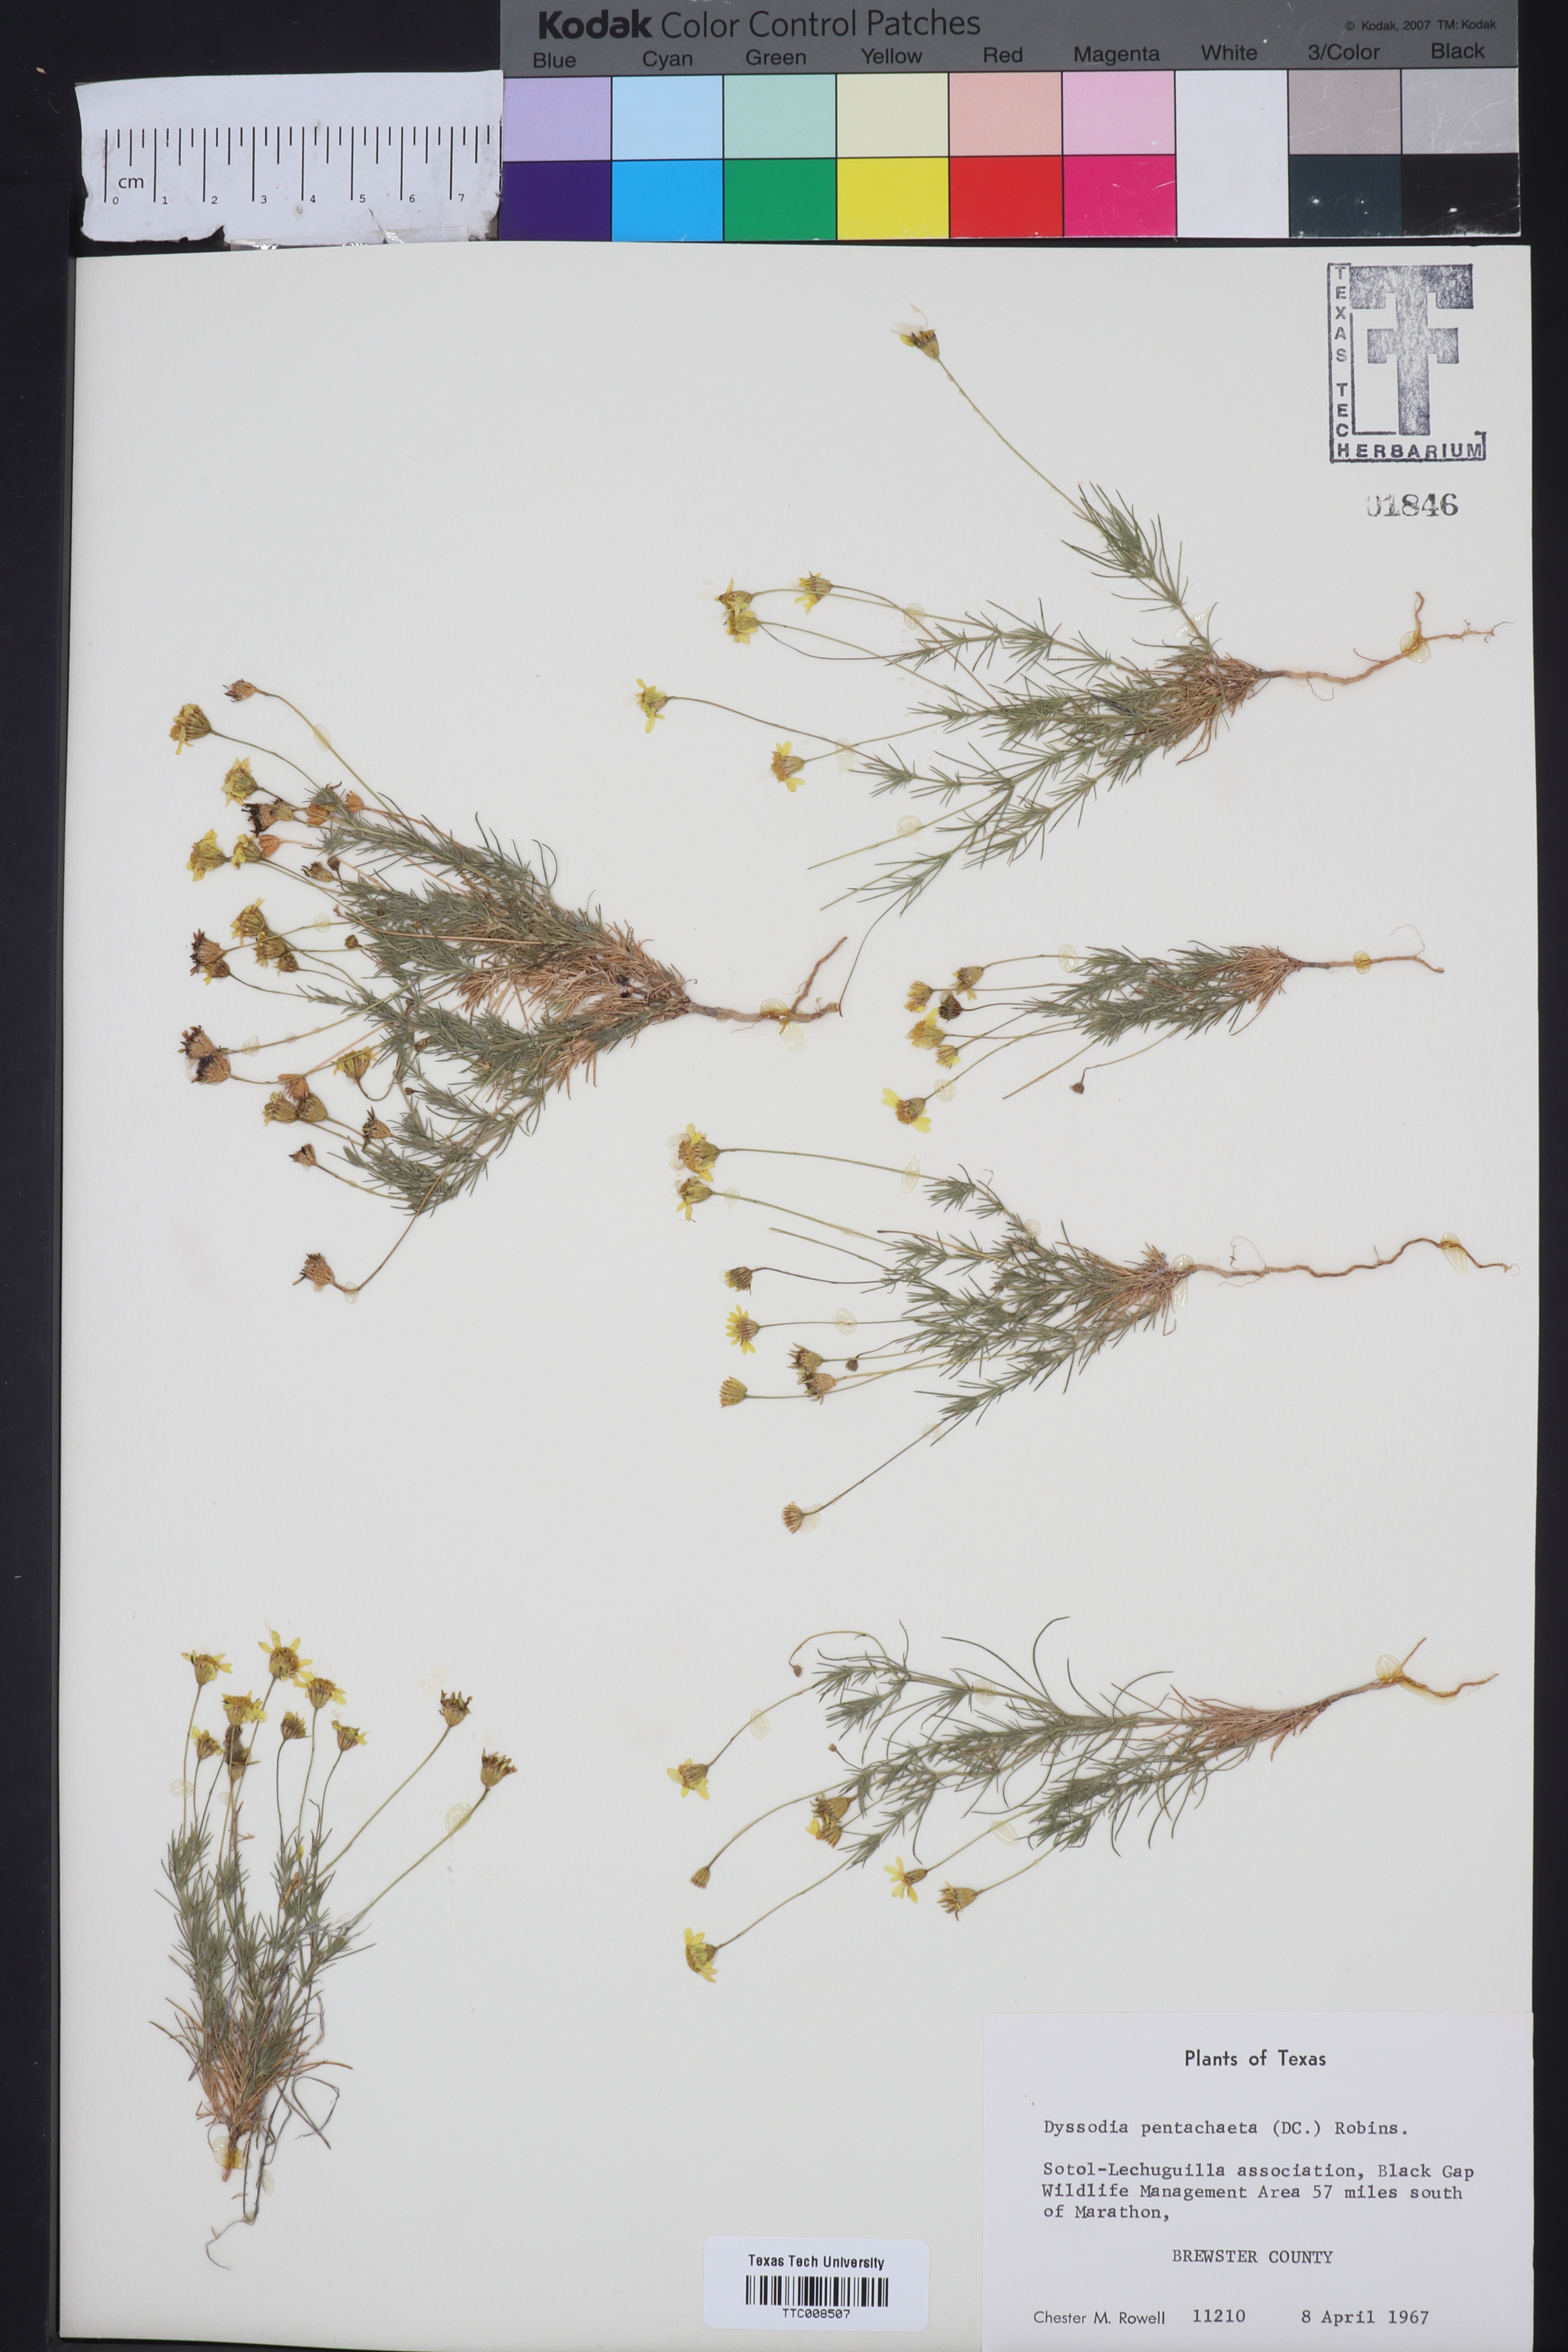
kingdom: Plantae
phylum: Tracheophyta
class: Magnoliopsida
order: Asterales
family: Asteraceae
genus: Thymophylla
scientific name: Thymophylla pentachaeta
